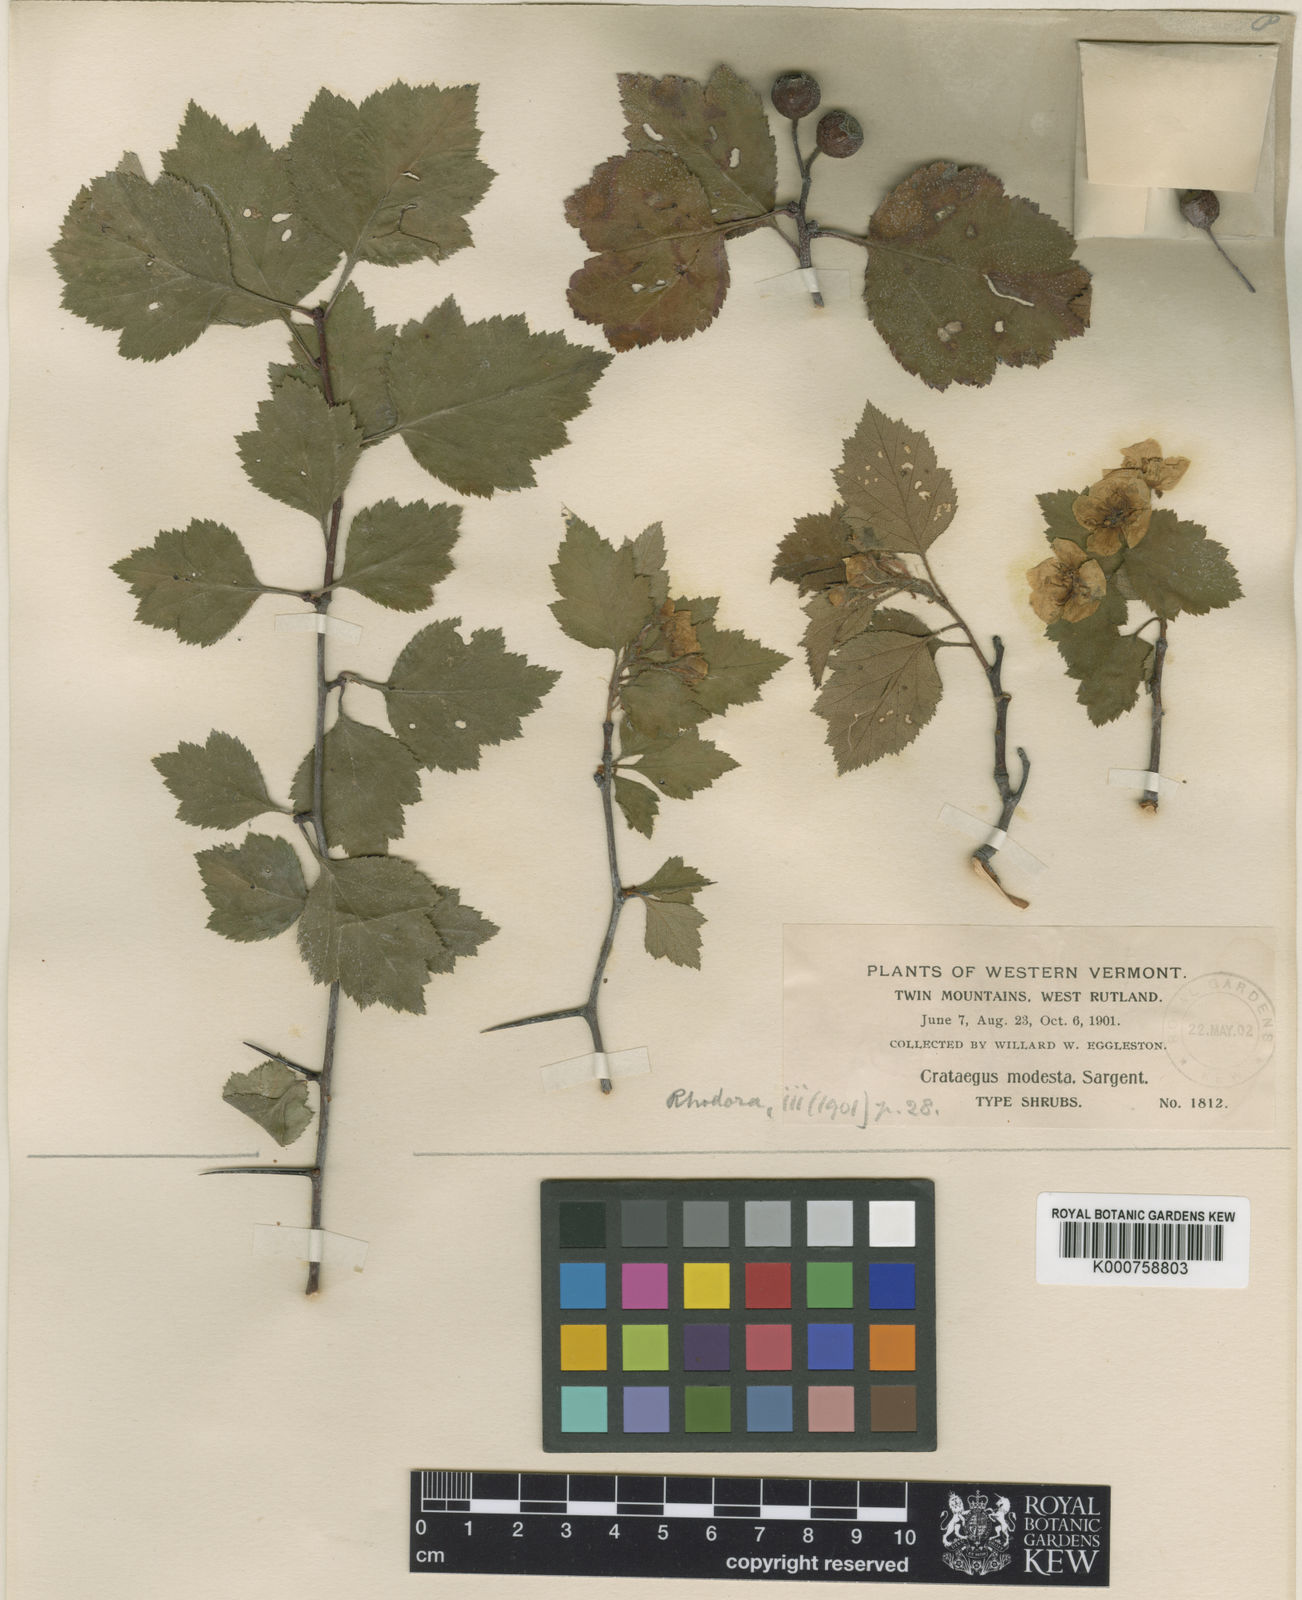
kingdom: Plantae
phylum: Tracheophyta
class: Magnoliopsida
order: Rosales
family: Rosaceae
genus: Crataegus
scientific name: Crataegus modesta
